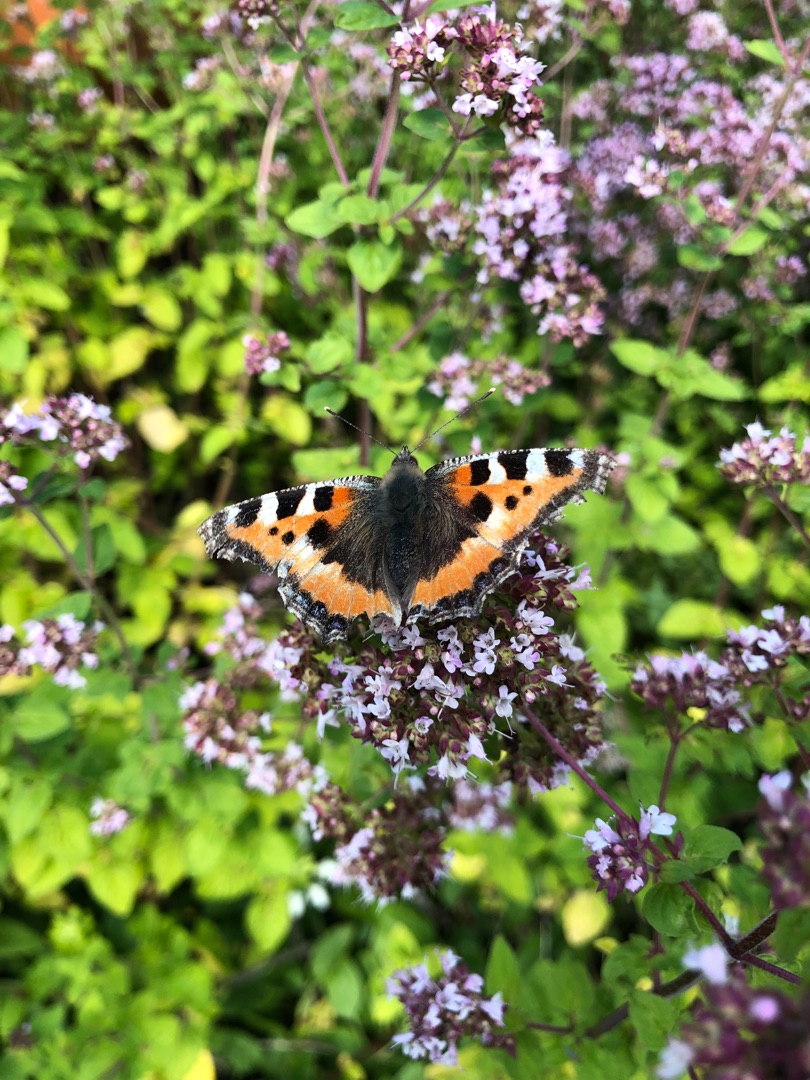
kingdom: Animalia
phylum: Arthropoda
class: Insecta
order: Lepidoptera
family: Nymphalidae
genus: Aglais
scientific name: Aglais urticae
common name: Nældens takvinge
